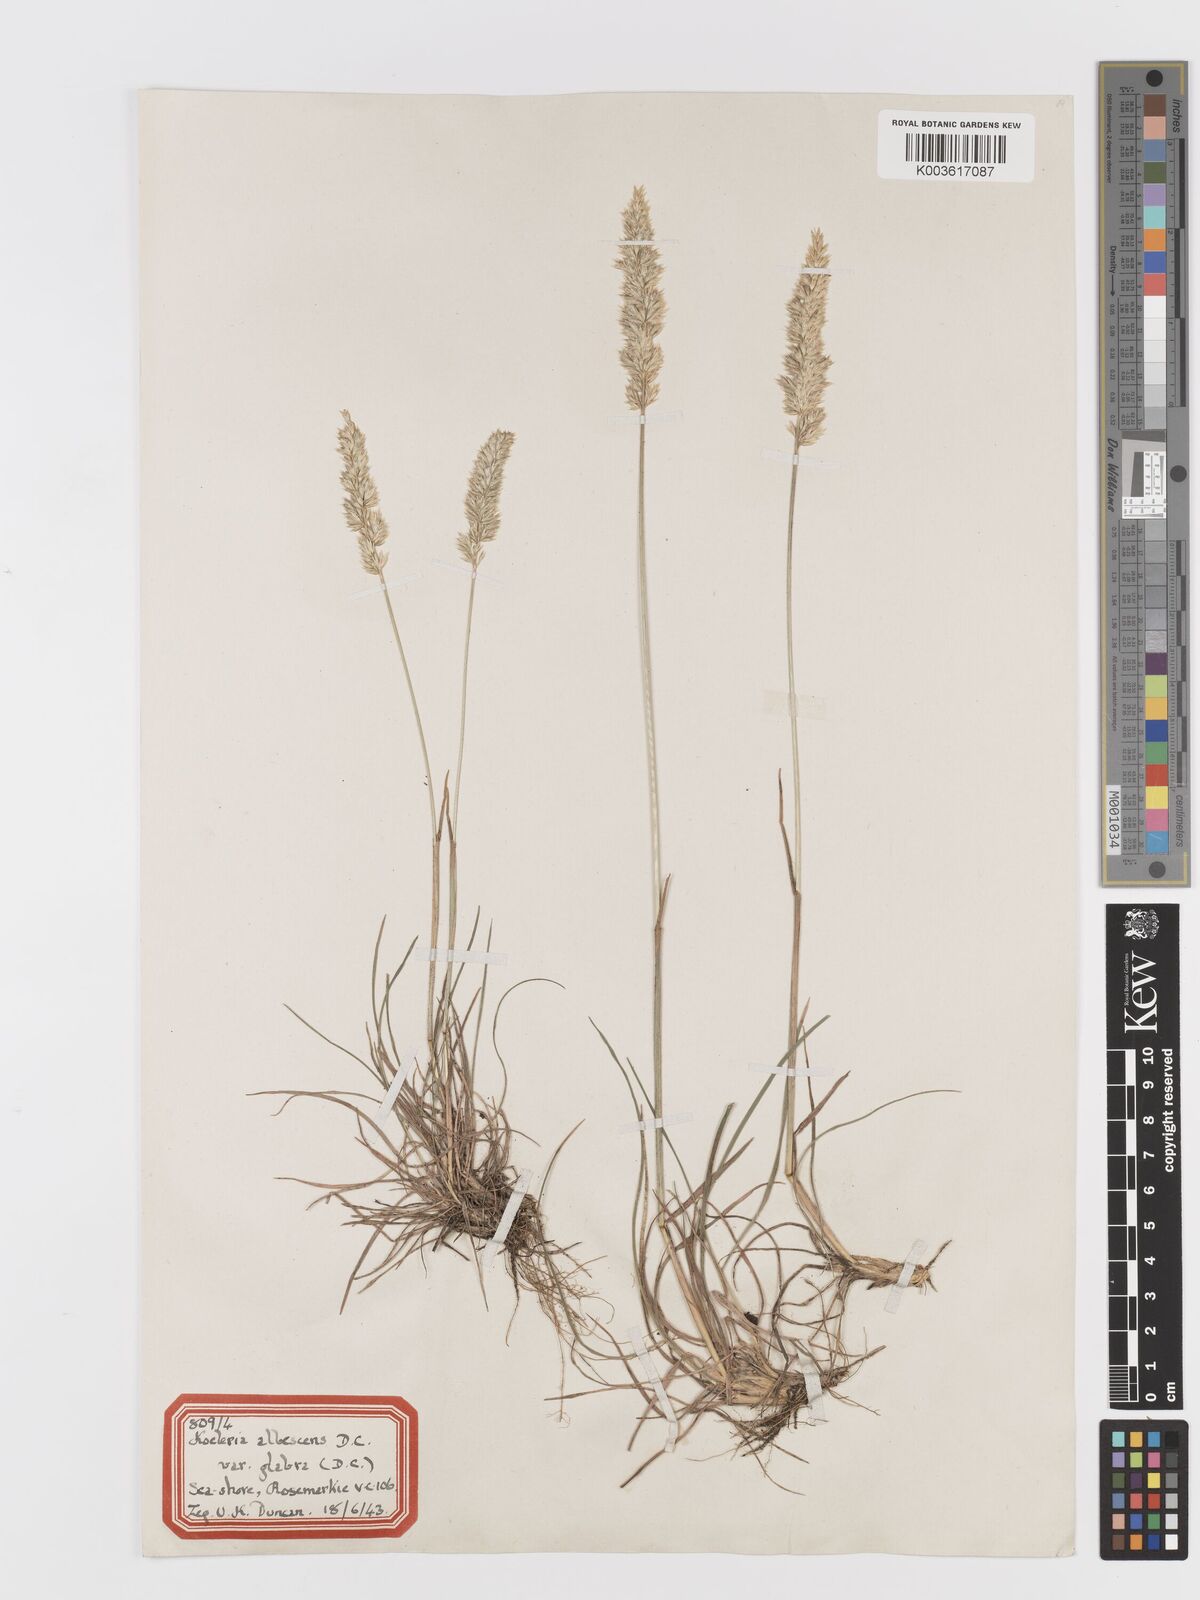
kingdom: Plantae
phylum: Tracheophyta
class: Liliopsida
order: Poales
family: Poaceae
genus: Koeleria
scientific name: Koeleria macrantha
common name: Crested hair-grass
